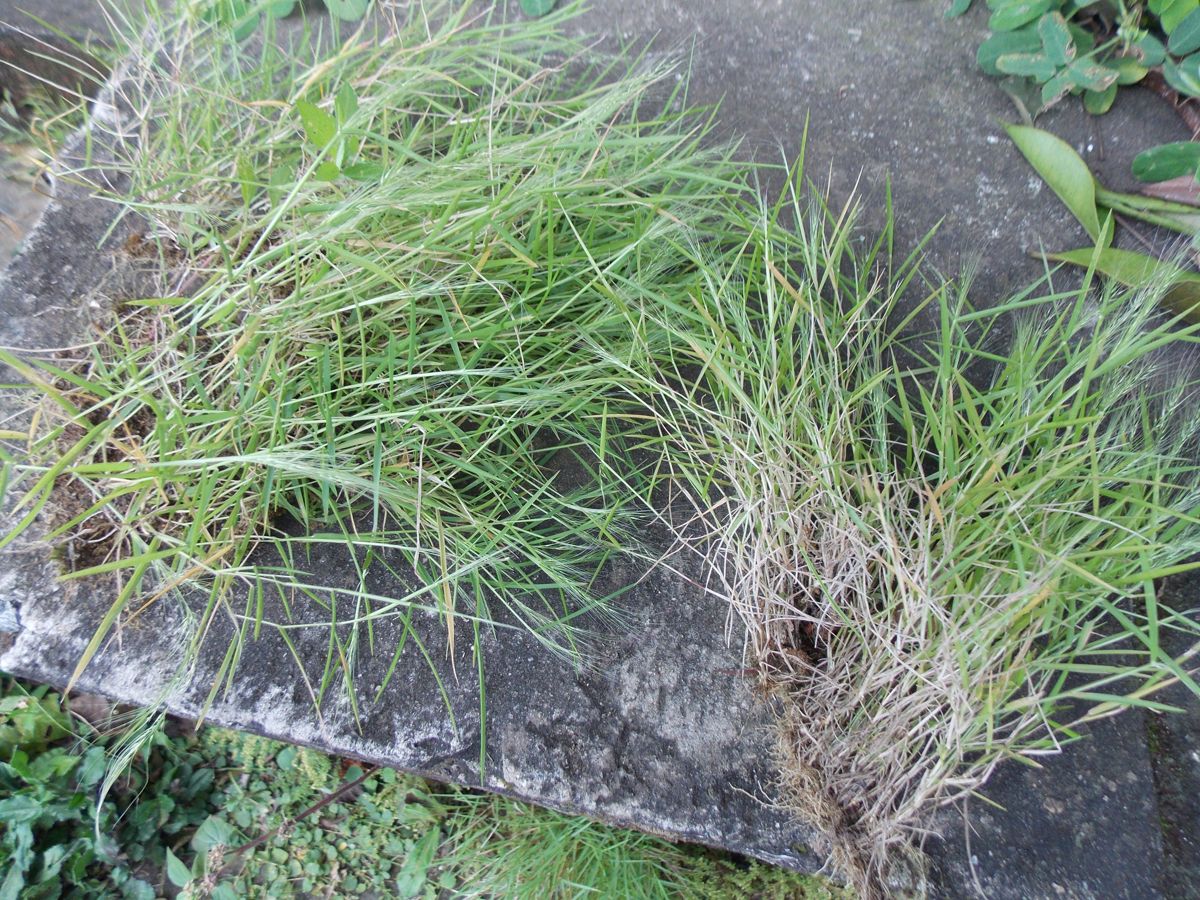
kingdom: Plantae
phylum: Tracheophyta
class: Liliopsida
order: Poales
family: Poaceae
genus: Aristida
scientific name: Aristida capillacea
